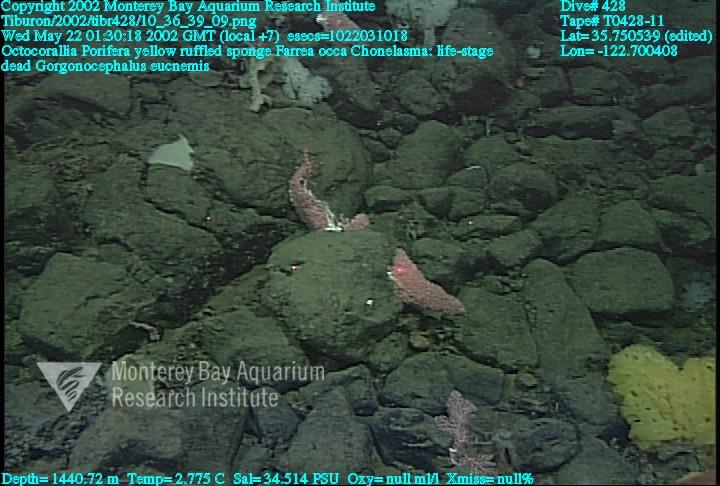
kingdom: Animalia
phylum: Porifera
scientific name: Porifera
